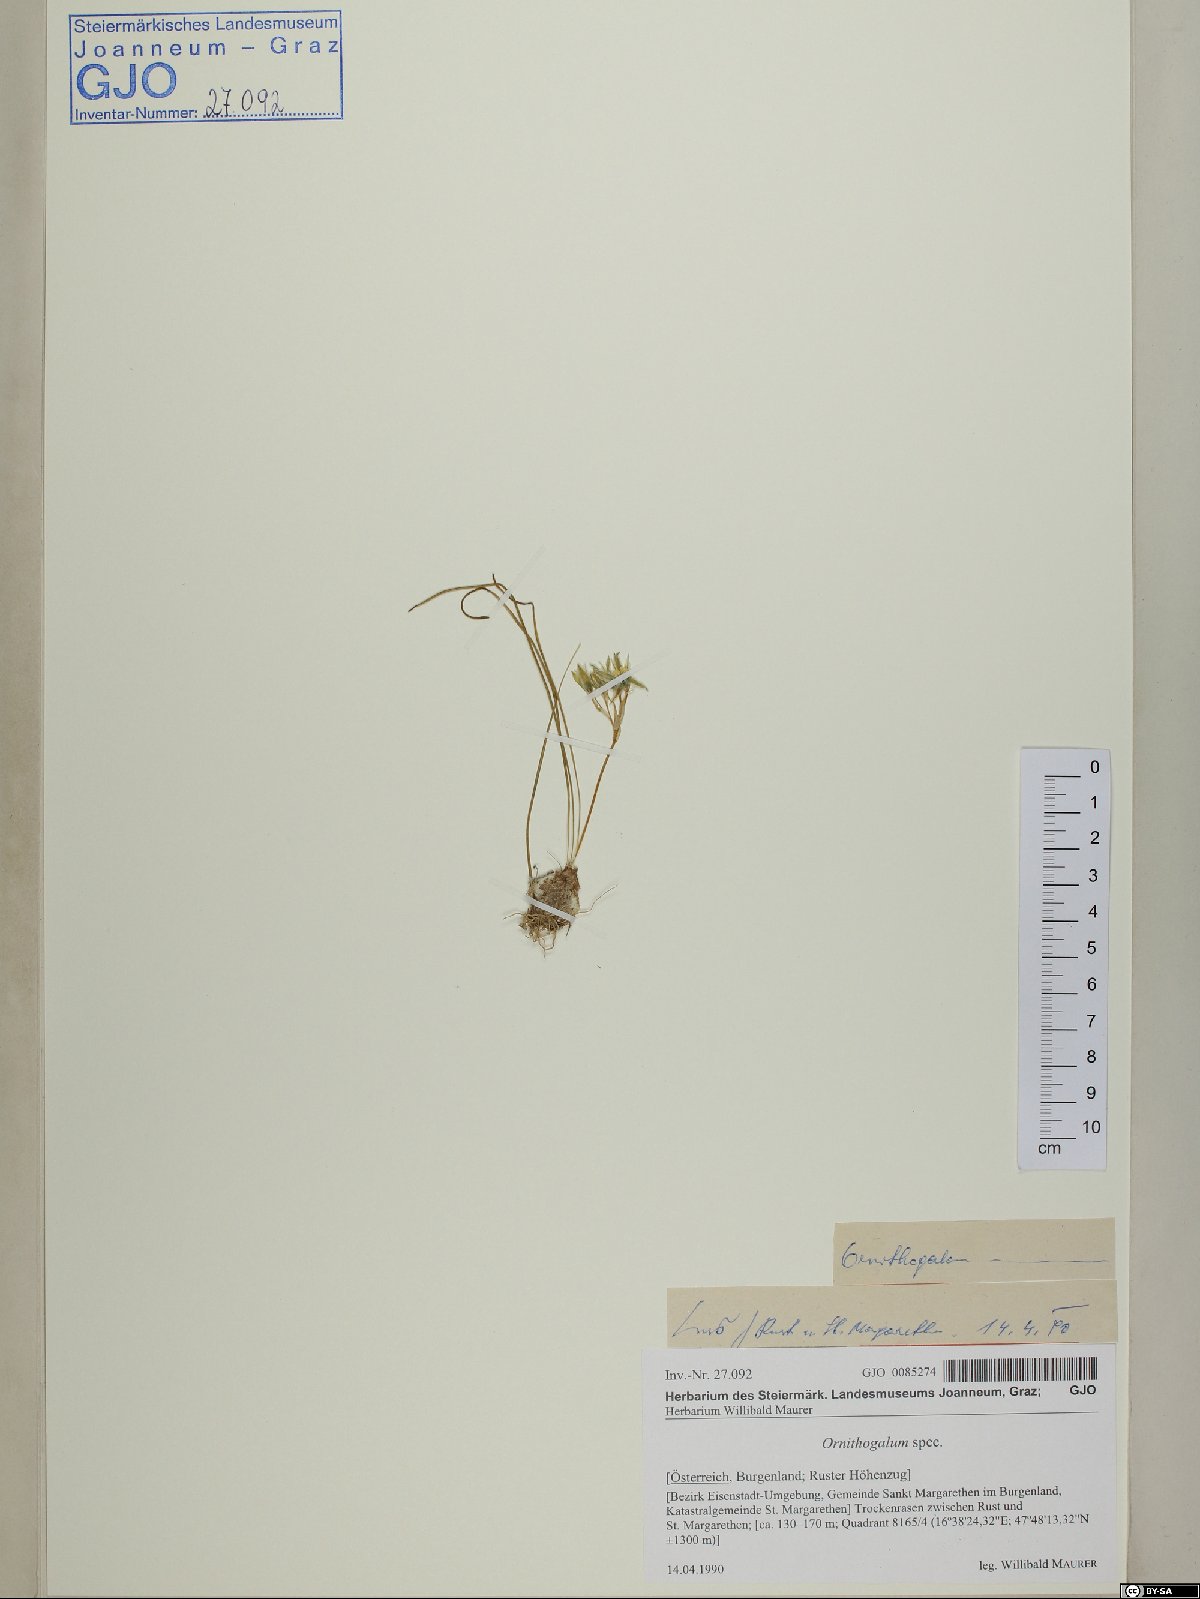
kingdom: Plantae
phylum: Tracheophyta
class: Liliopsida
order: Asparagales
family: Asparagaceae
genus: Ornithogalum
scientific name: Ornithogalum
